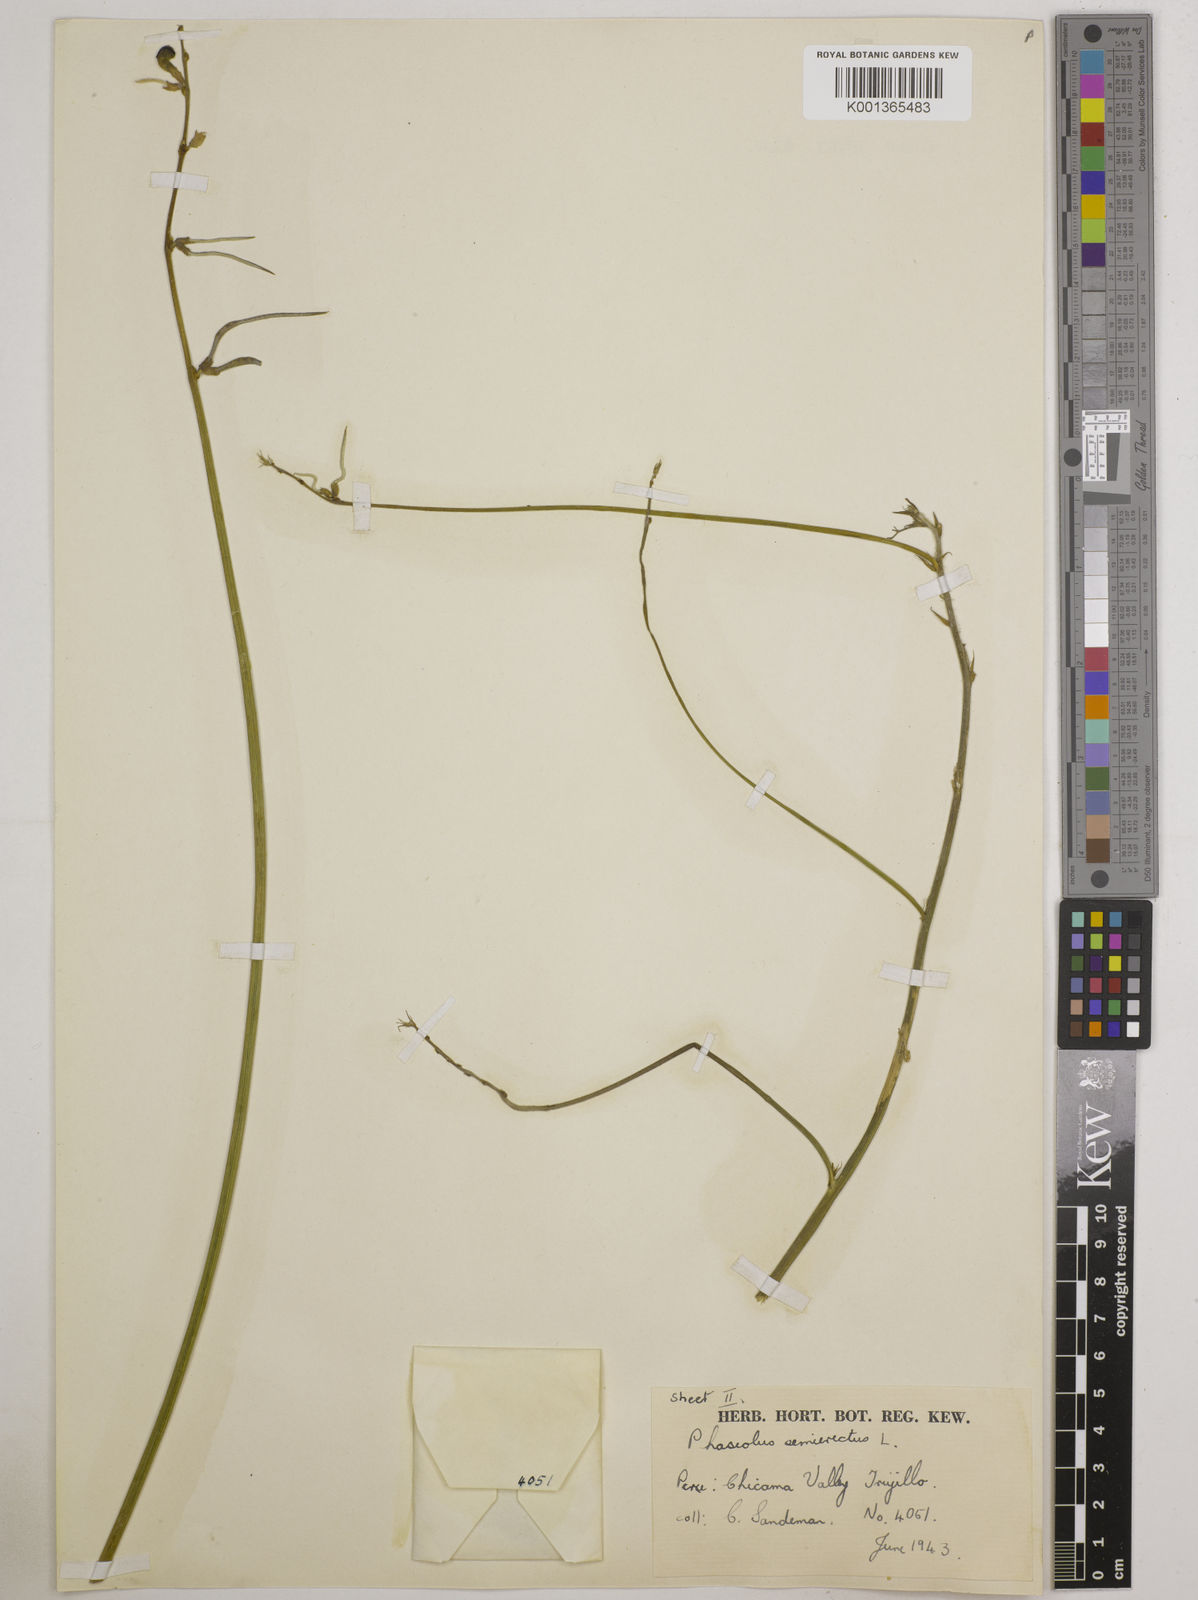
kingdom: Plantae
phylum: Tracheophyta
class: Magnoliopsida
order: Fabales
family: Fabaceae
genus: Macroptilium
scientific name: Macroptilium lathyroides
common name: Wild bushbean
